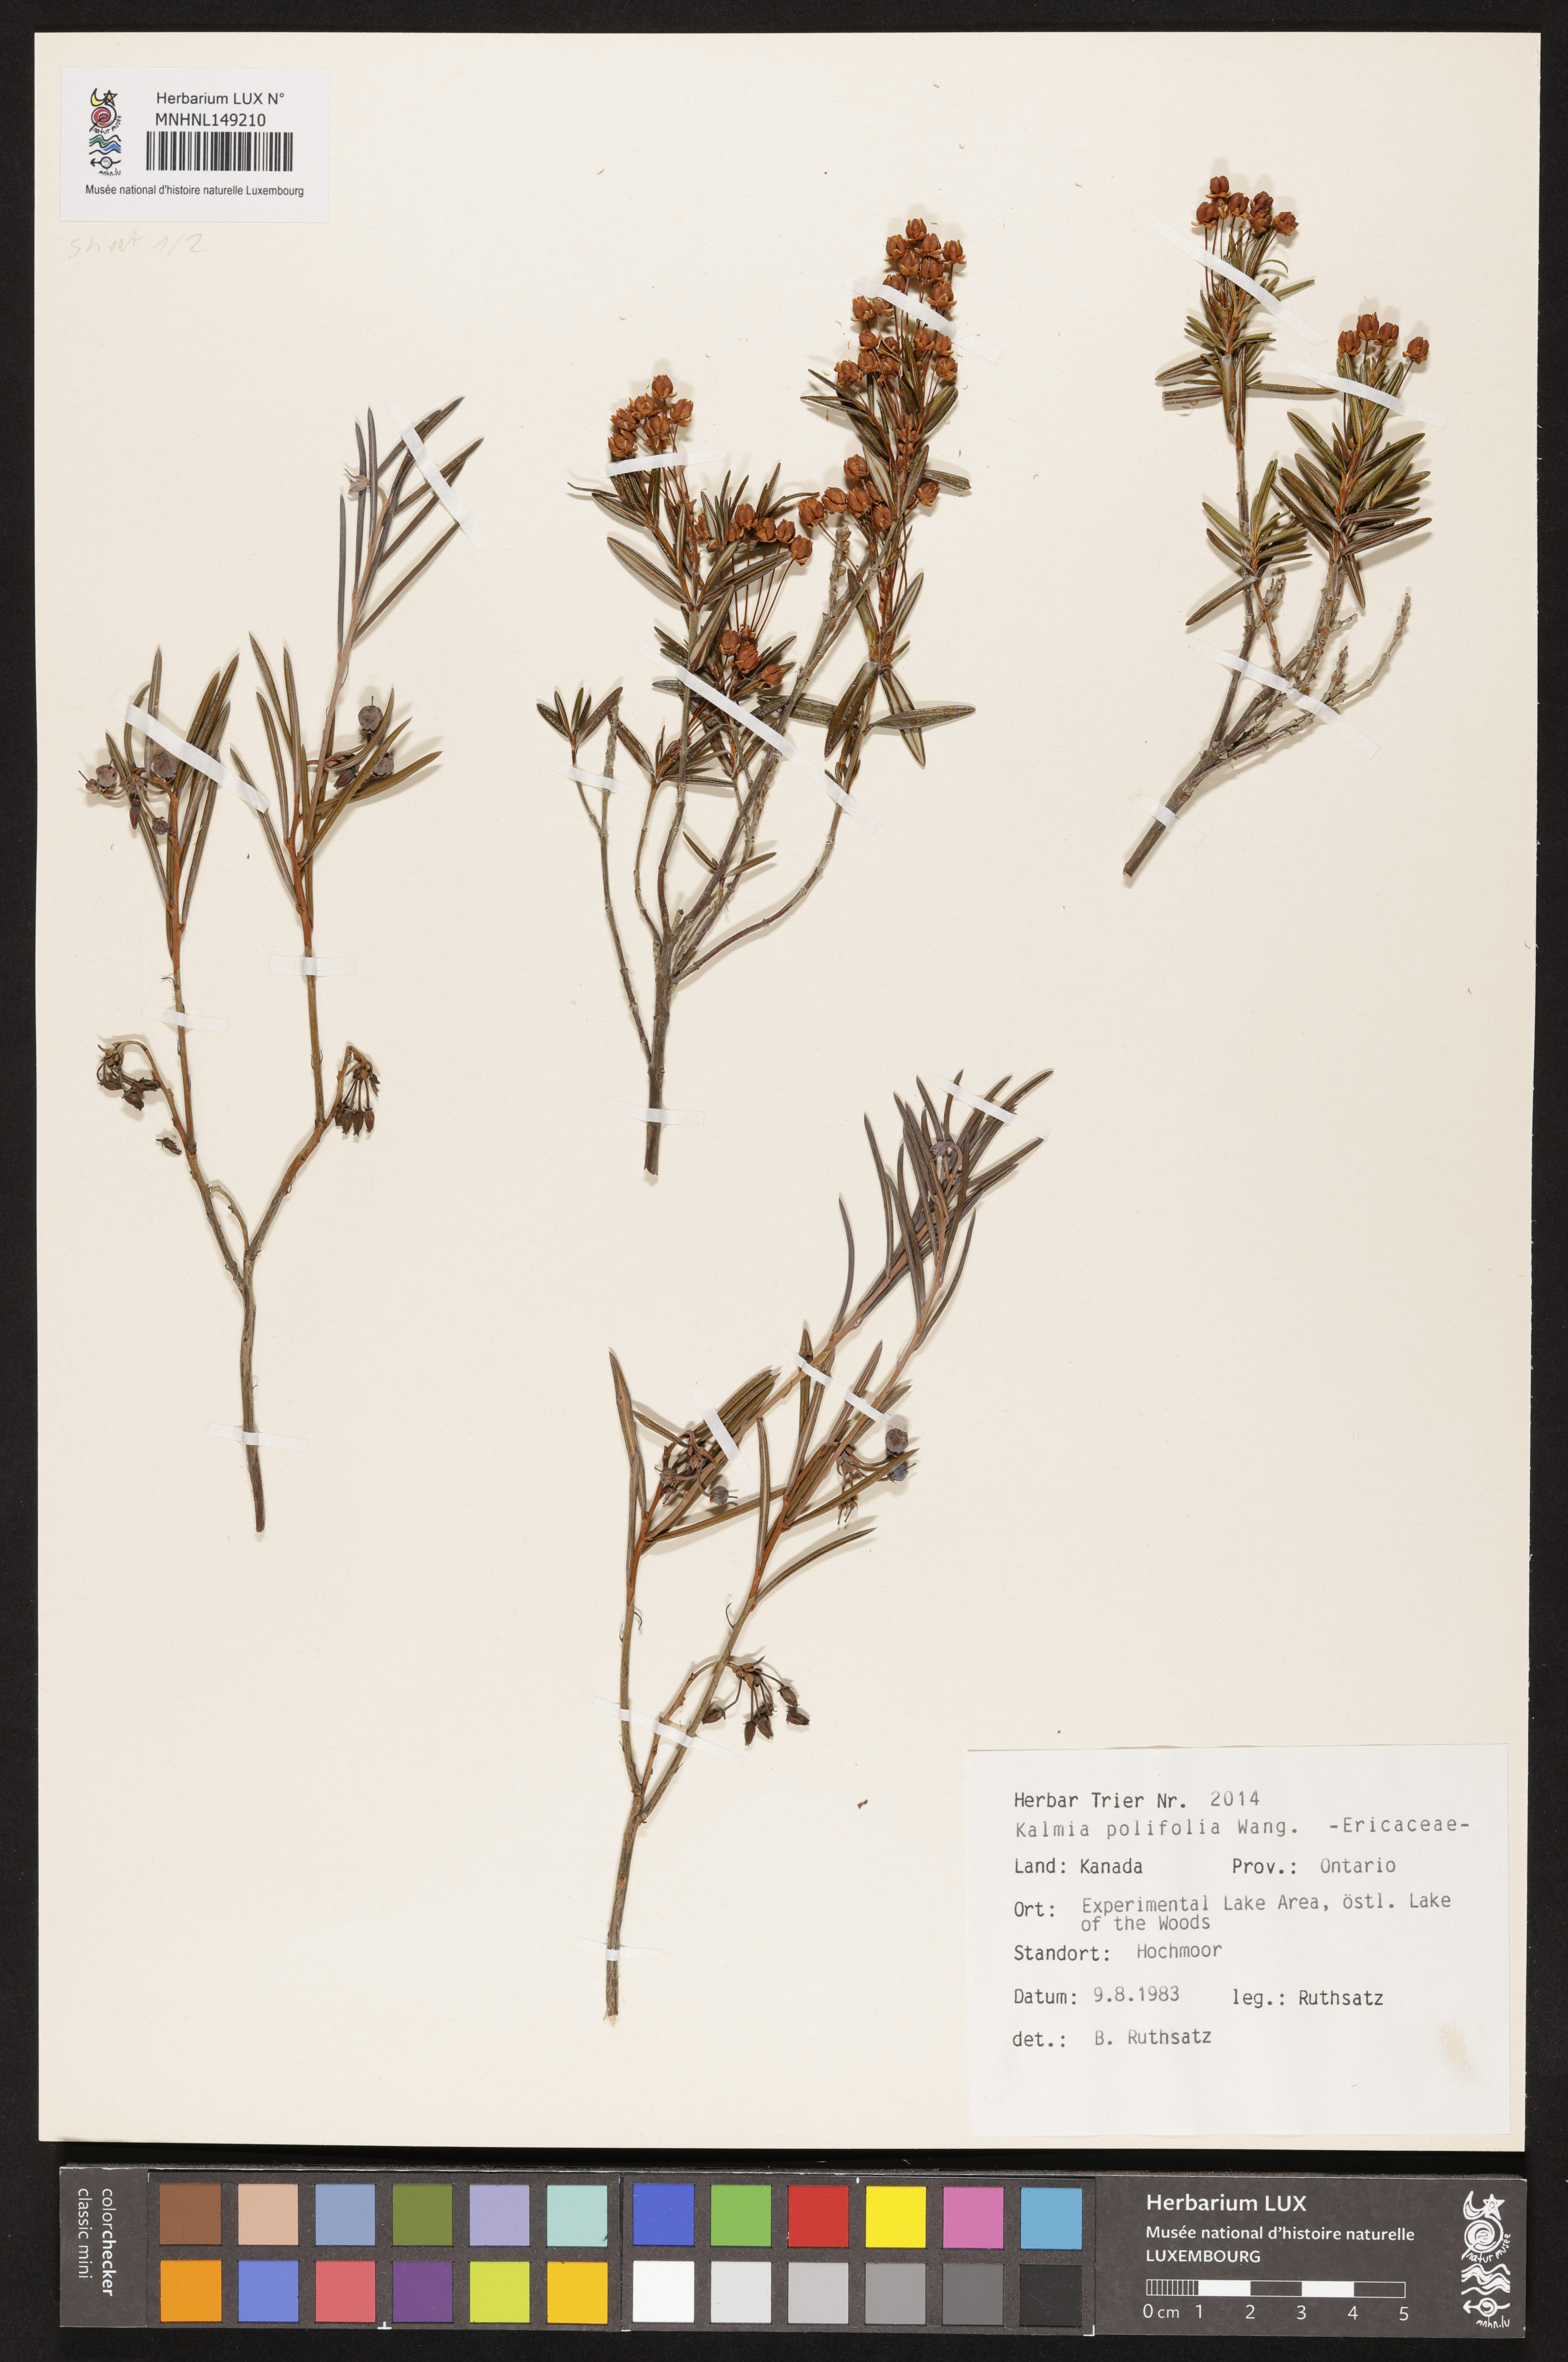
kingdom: Plantae
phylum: Tracheophyta
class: Magnoliopsida
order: Ericales
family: Ericaceae
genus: Kalmia
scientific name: Kalmia polifolia
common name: Bog-laurel
